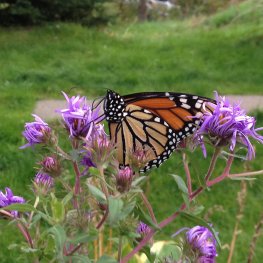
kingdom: Animalia
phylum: Arthropoda
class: Insecta
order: Lepidoptera
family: Nymphalidae
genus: Danaus
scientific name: Danaus plexippus
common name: Monarch
